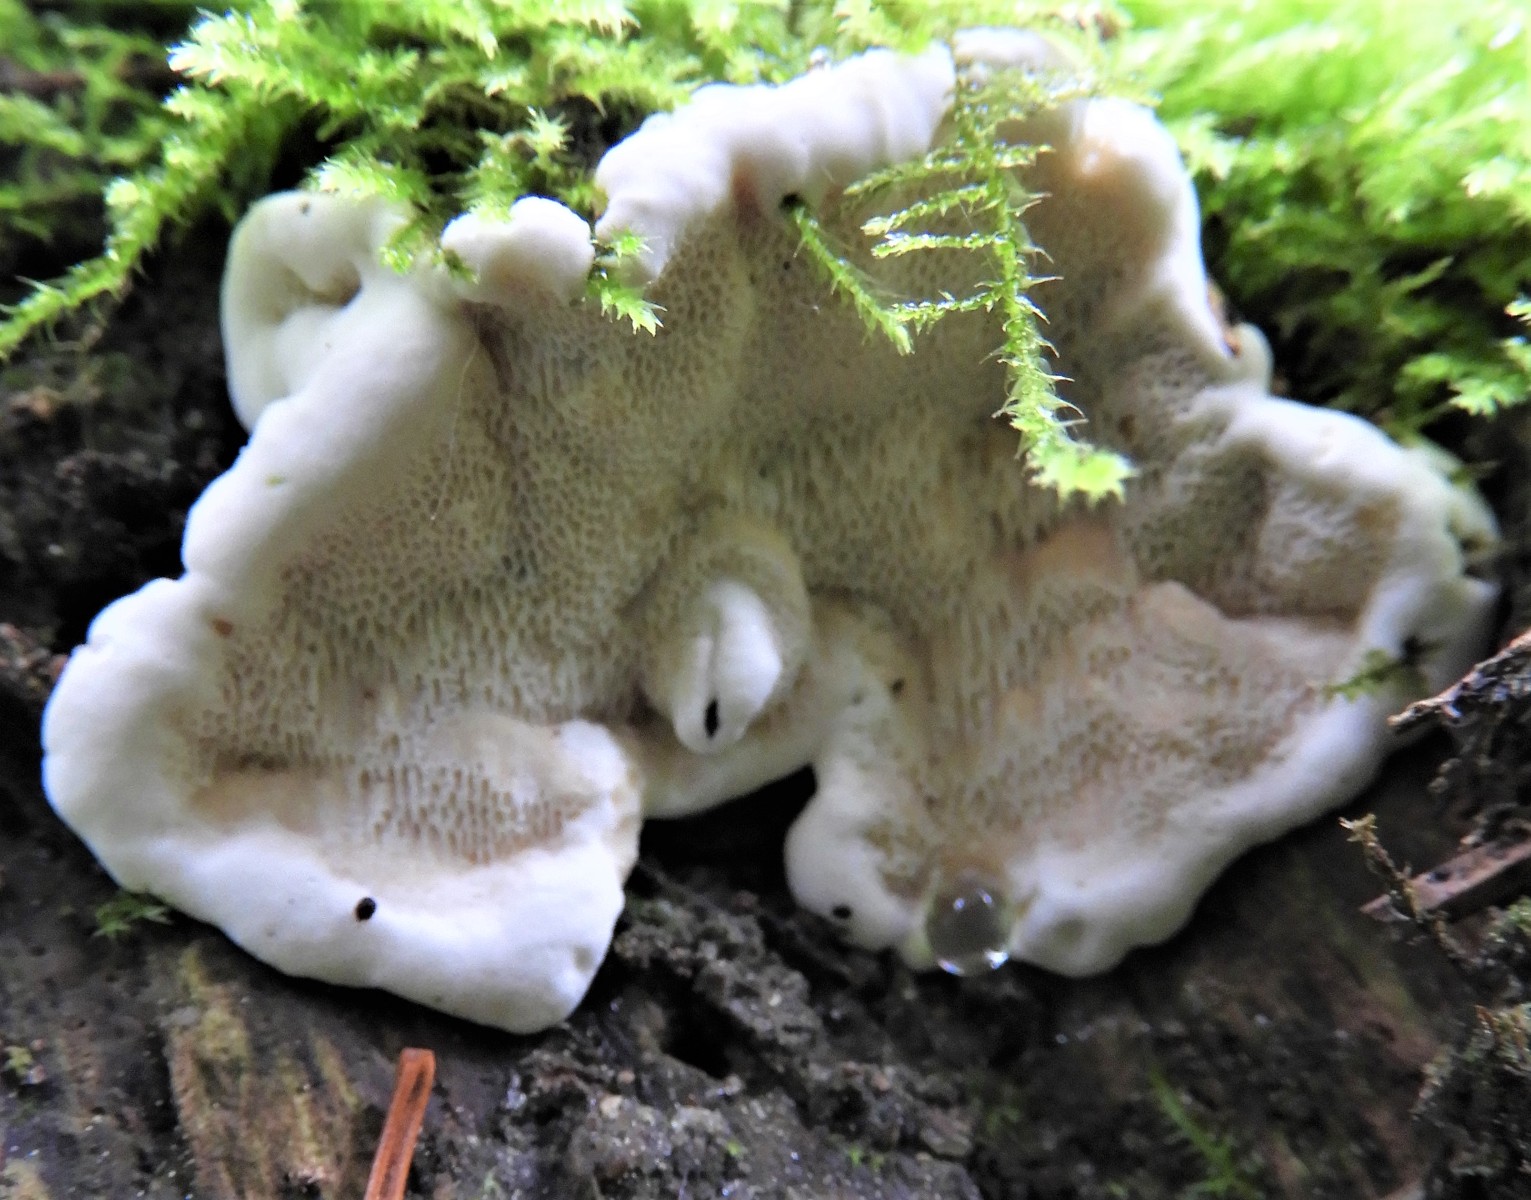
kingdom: Fungi
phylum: Basidiomycota
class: Agaricomycetes
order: Russulales
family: Bondarzewiaceae
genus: Heterobasidion
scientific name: Heterobasidion annosum
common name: almindelig rodfordærver
